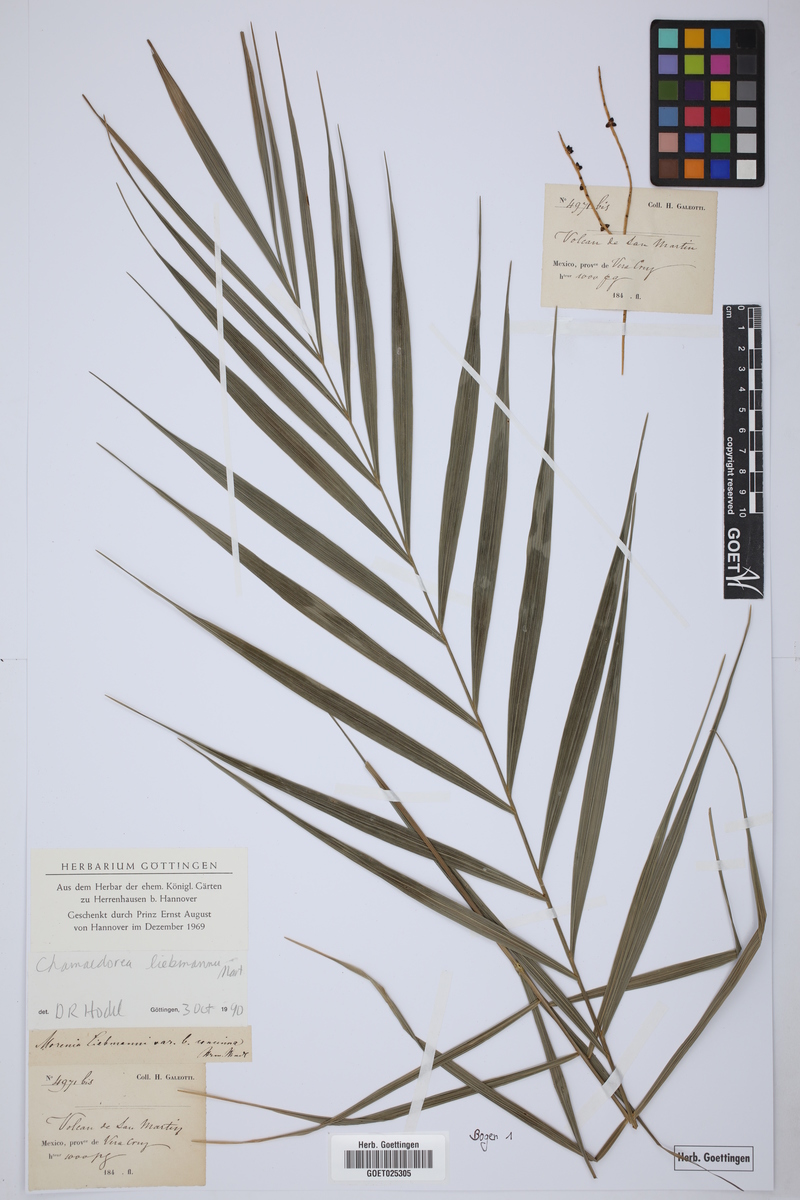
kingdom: Plantae
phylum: Tracheophyta
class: Liliopsida
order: Arecales
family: Arecaceae
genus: Chamaedorea
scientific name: Chamaedorea liebmannii
